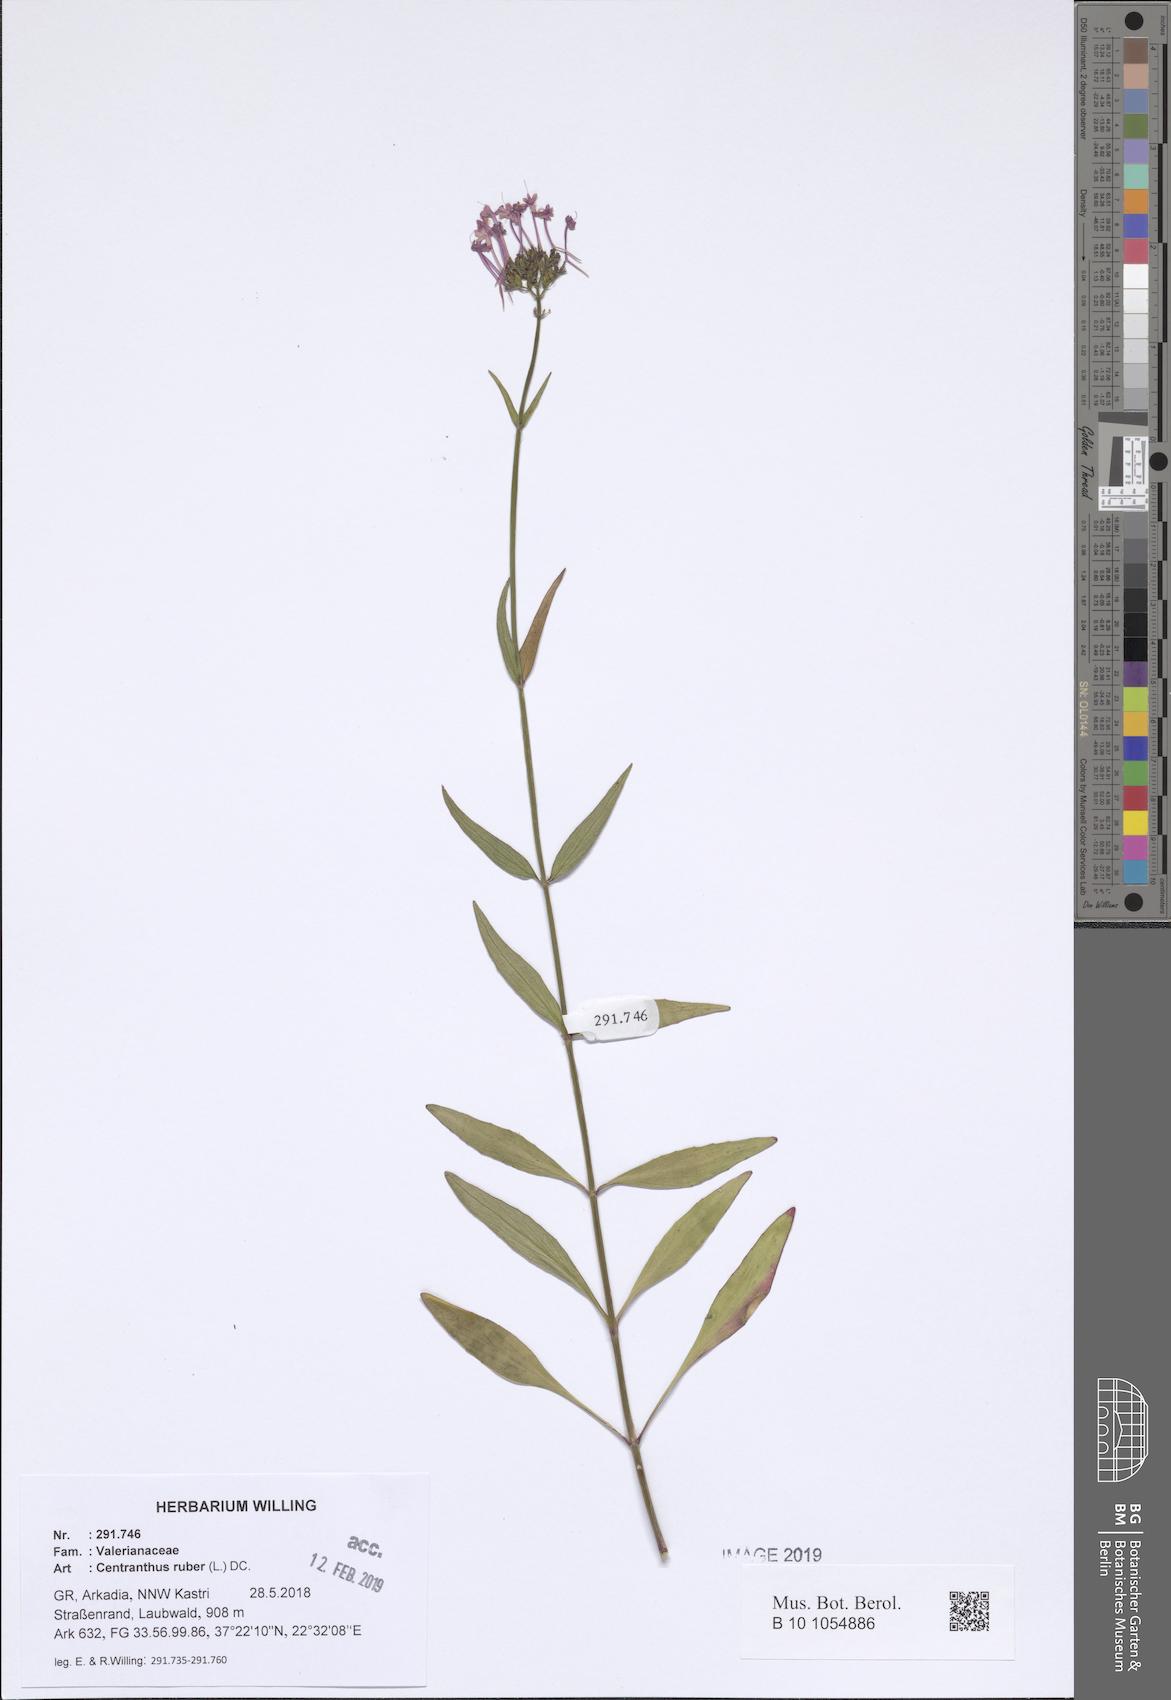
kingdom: Plantae
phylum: Tracheophyta
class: Magnoliopsida
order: Dipsacales
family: Caprifoliaceae
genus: Centranthus
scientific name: Centranthus ruber
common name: Red valerian
